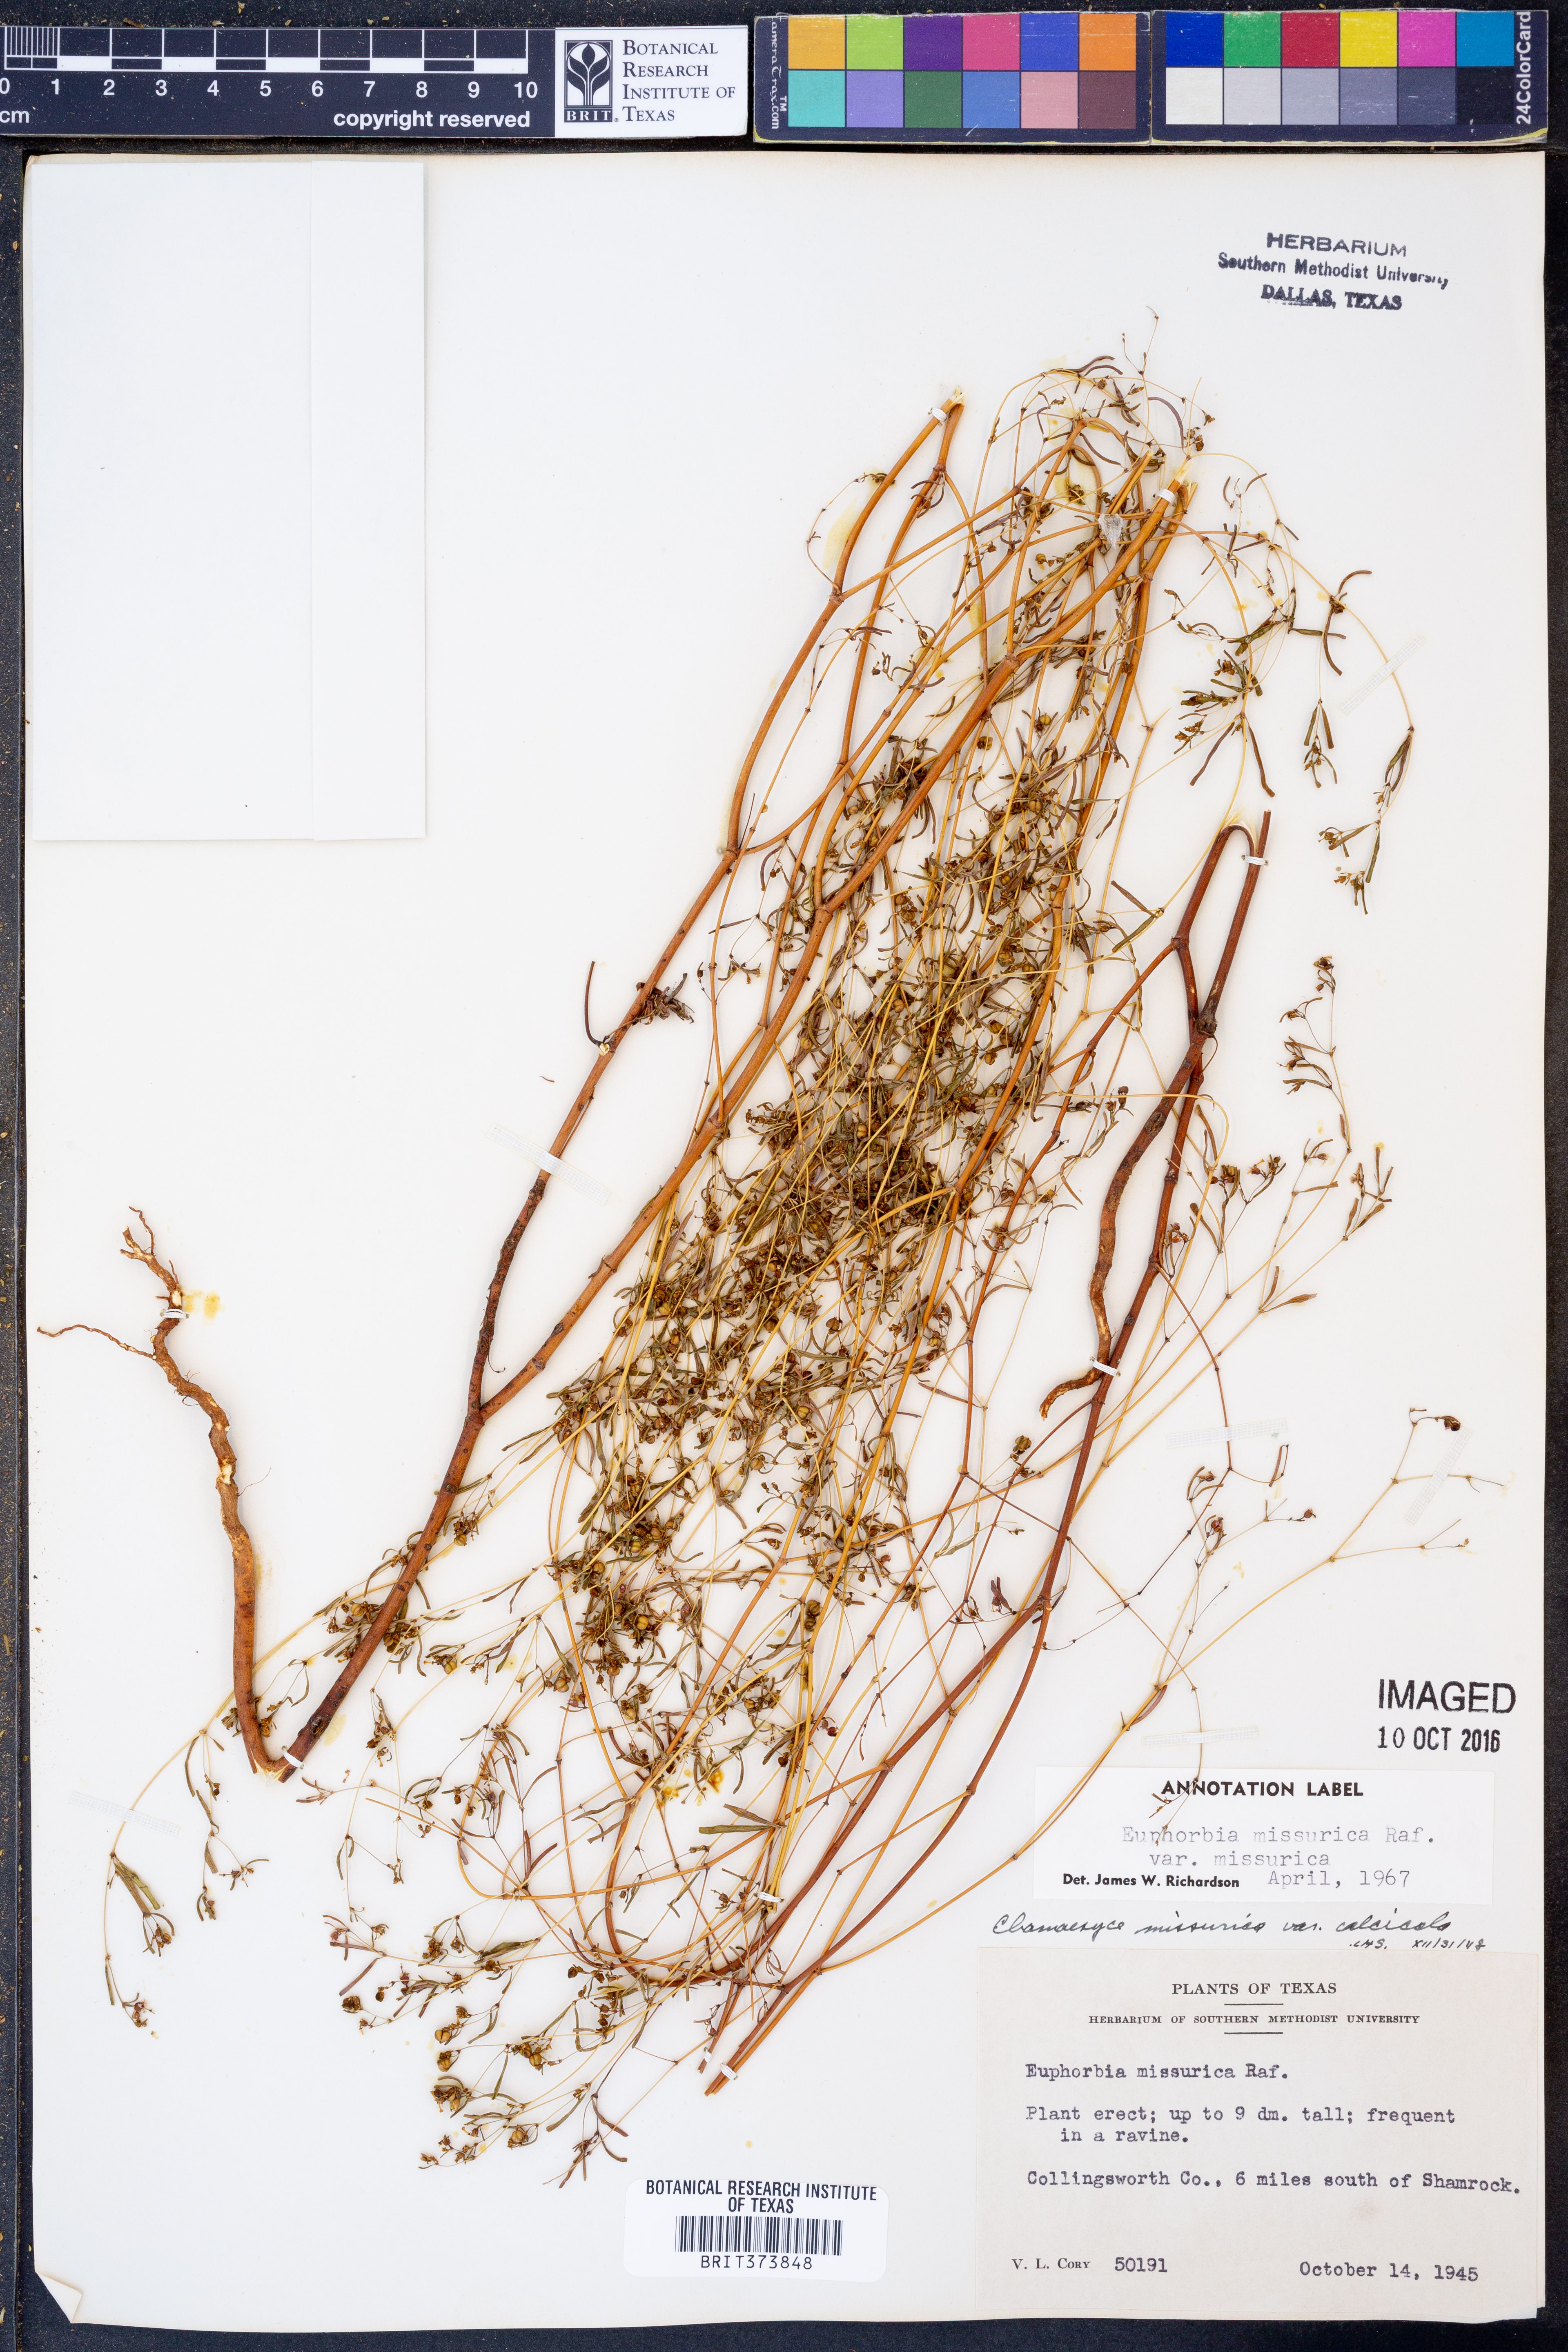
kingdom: Plantae
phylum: Tracheophyta
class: Magnoliopsida
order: Malpighiales
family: Euphorbiaceae
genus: Euphorbia
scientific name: Euphorbia missurica
